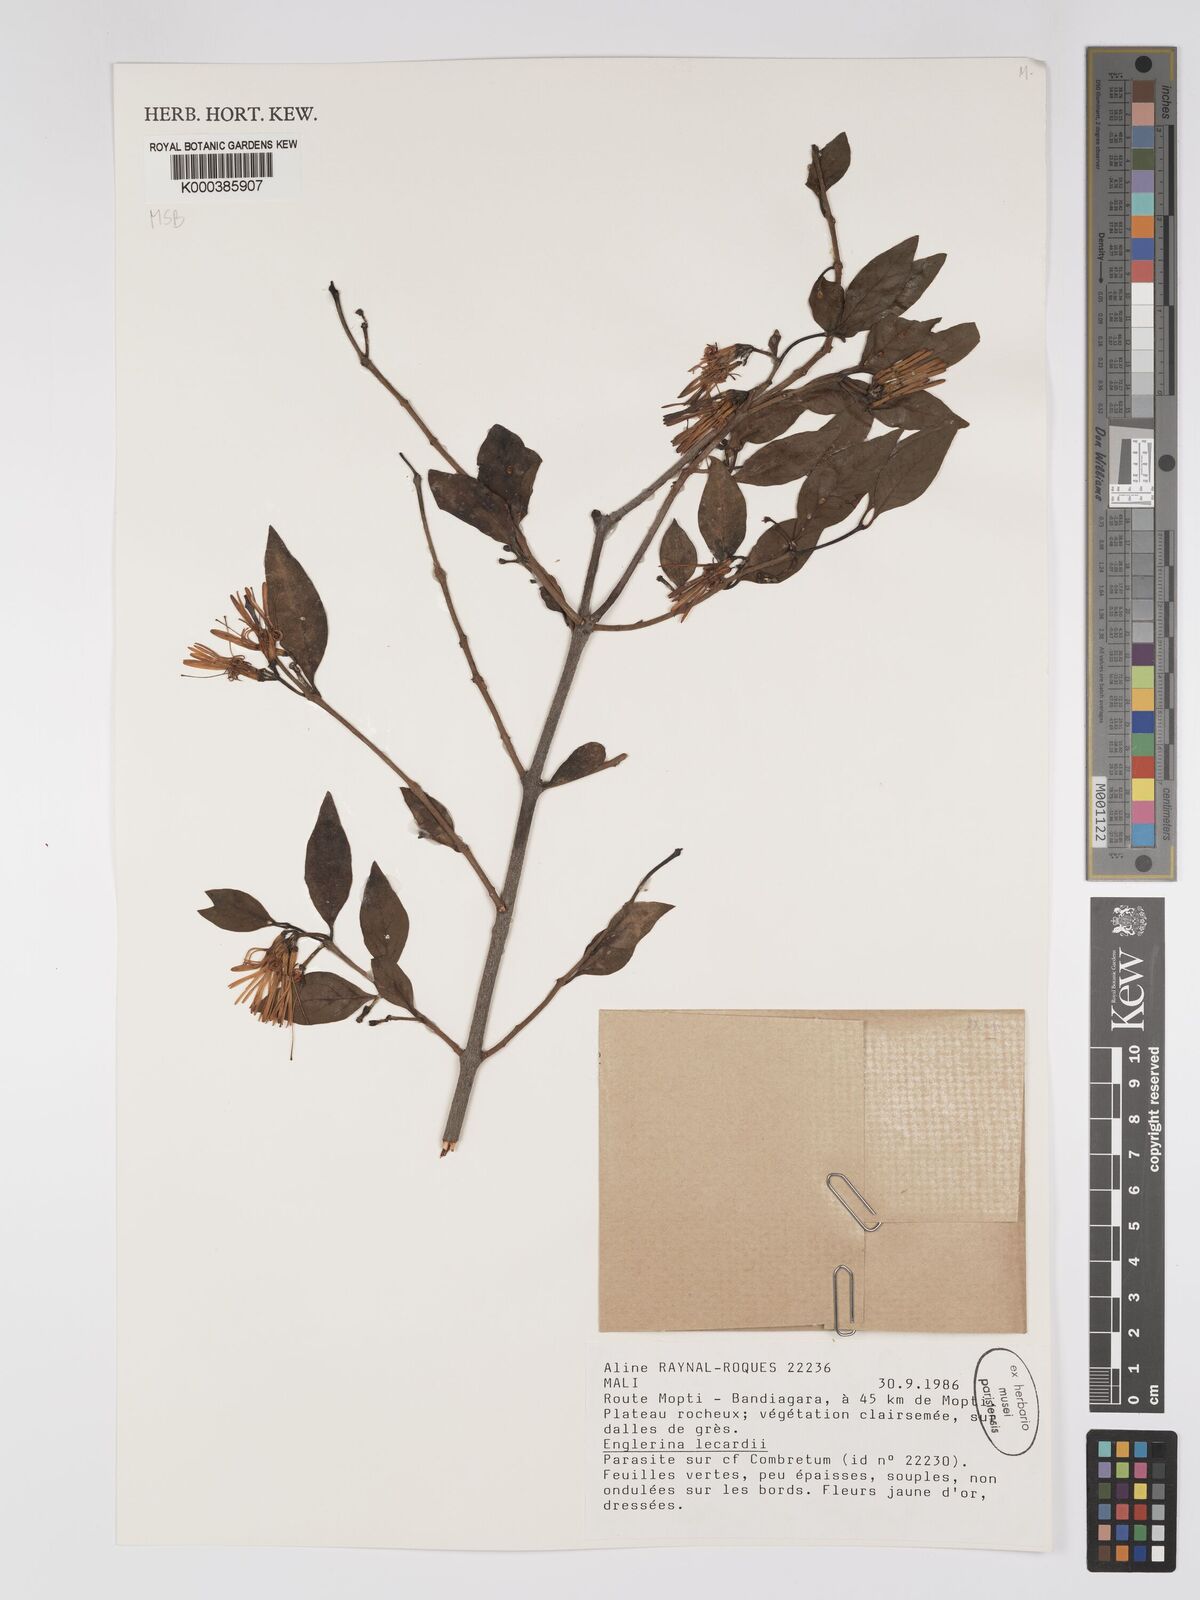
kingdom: Plantae
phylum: Tracheophyta
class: Magnoliopsida
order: Santalales
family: Loranthaceae
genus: Englerina
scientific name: Englerina lecardii
